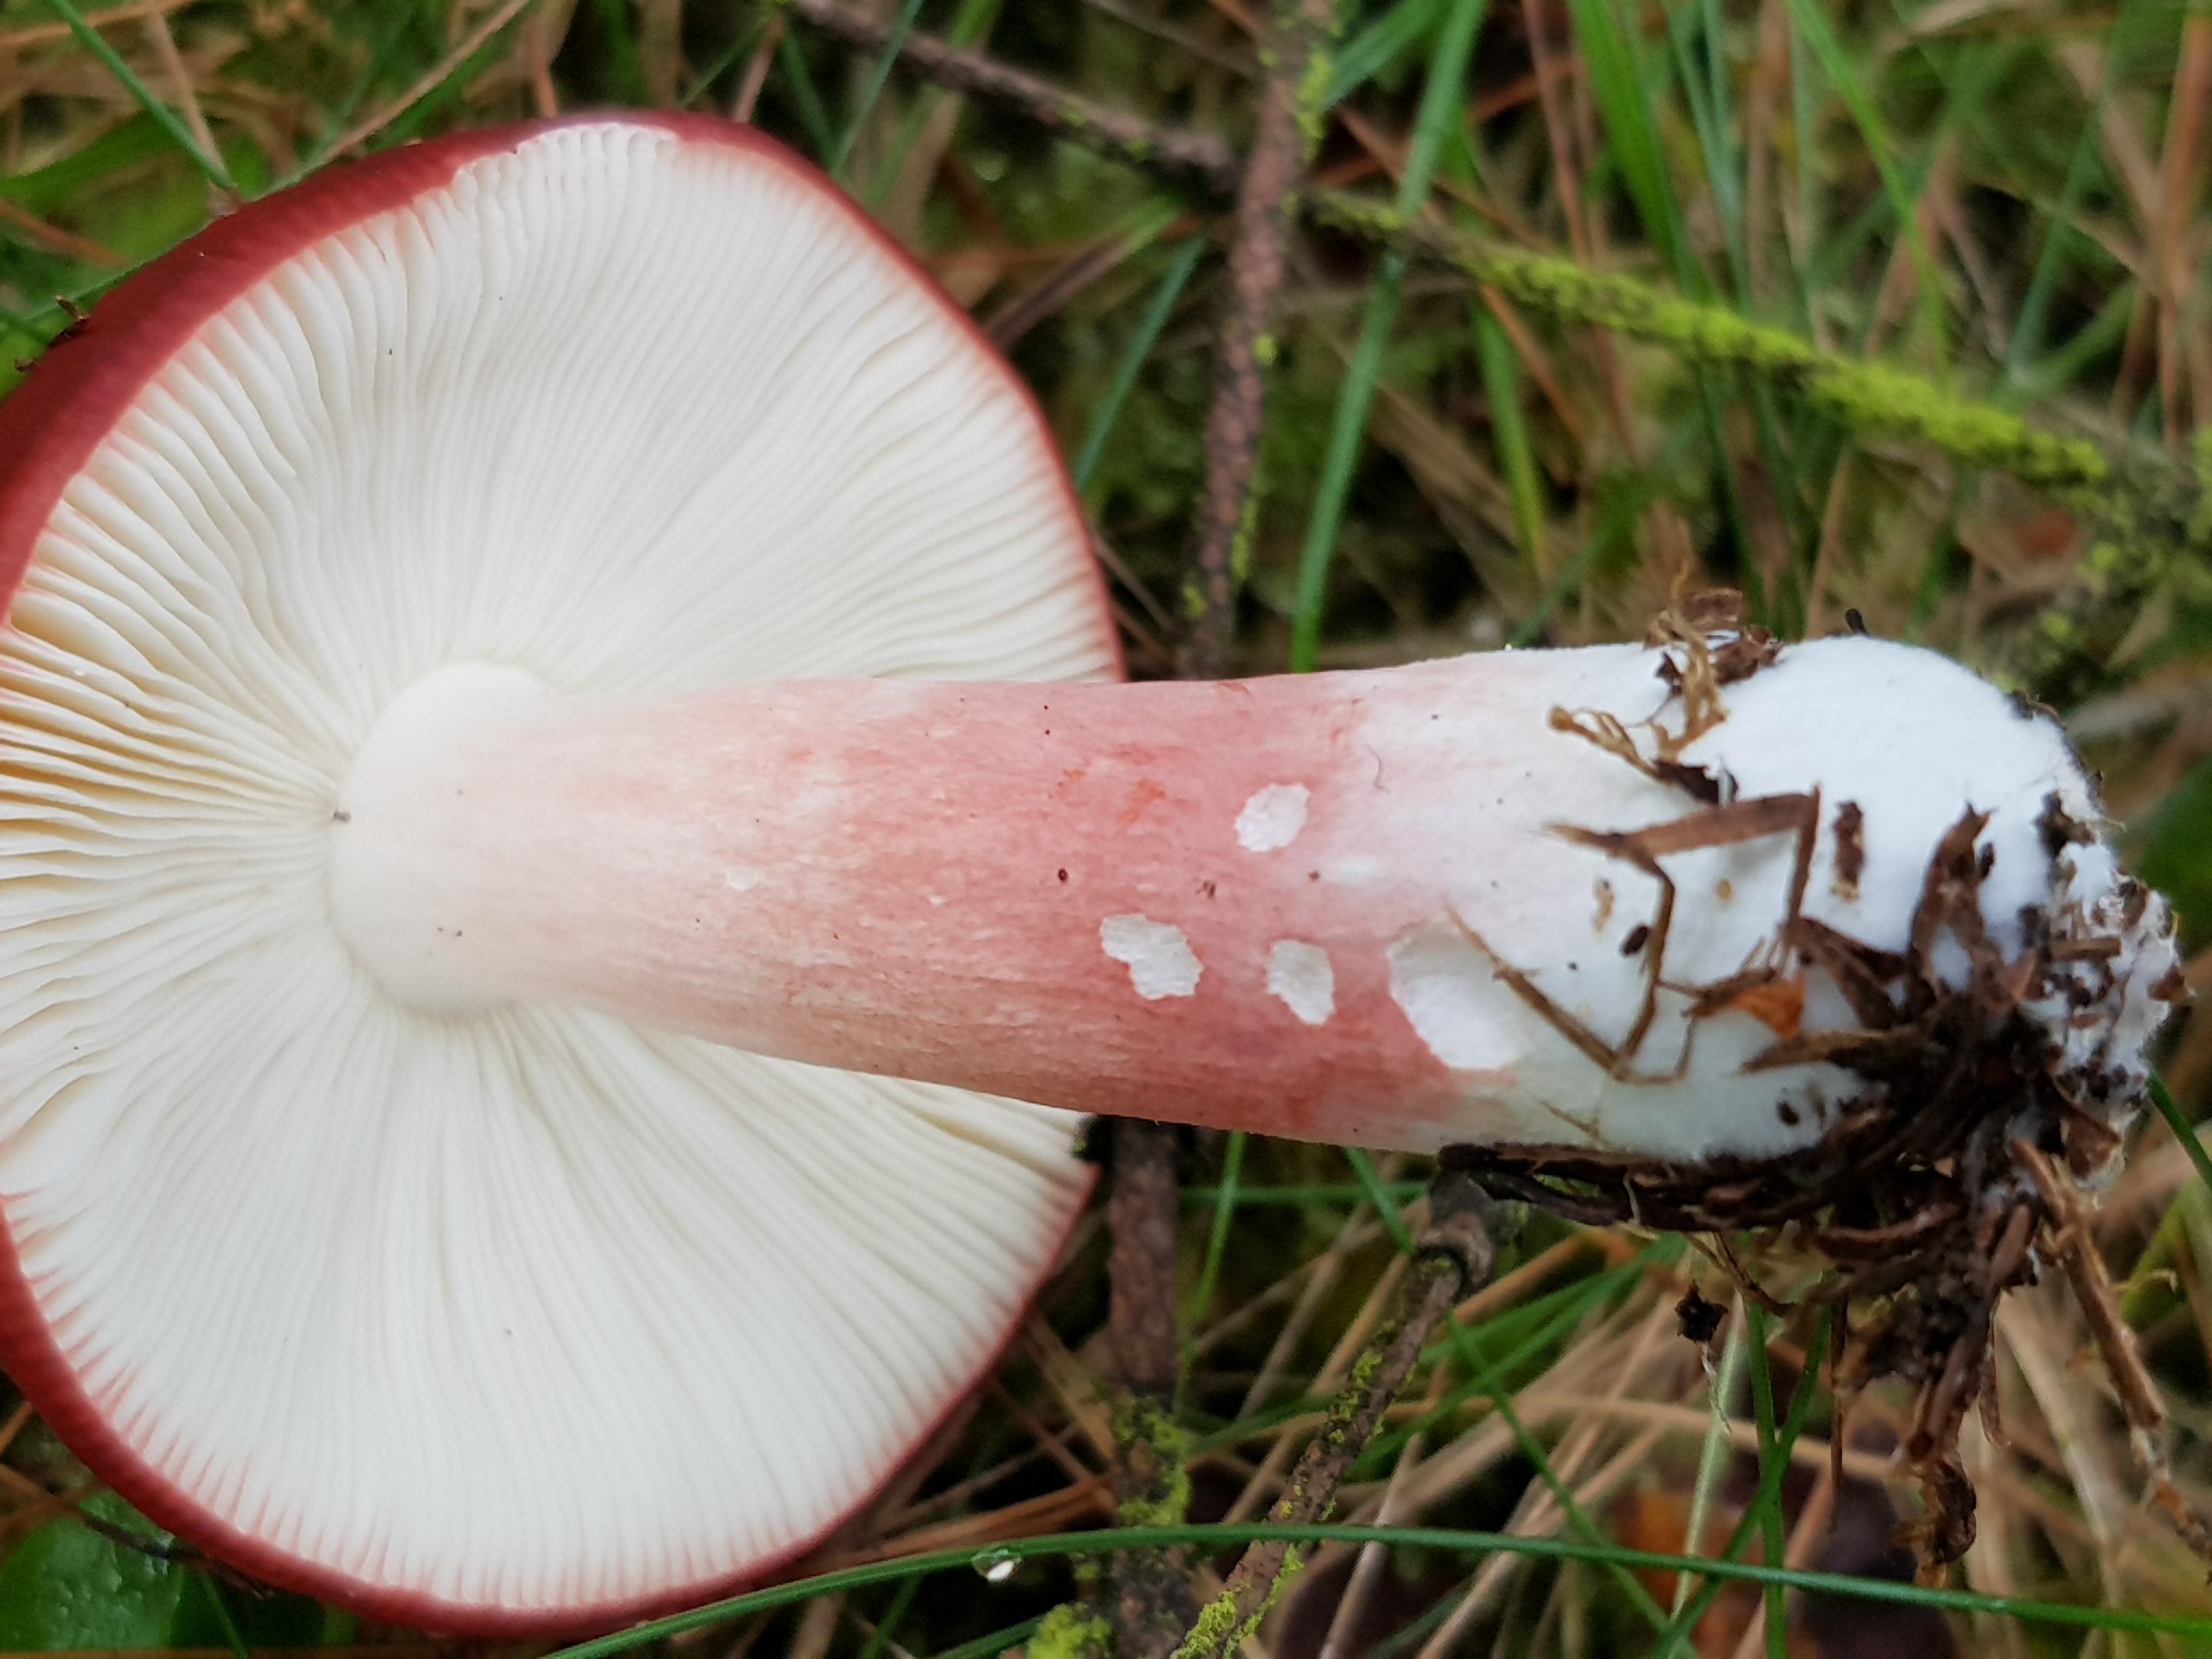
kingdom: Fungi
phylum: Basidiomycota
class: Agaricomycetes
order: Russulales
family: Russulaceae
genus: Russula
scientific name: Russula xerampelina
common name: hummer-skørhat
